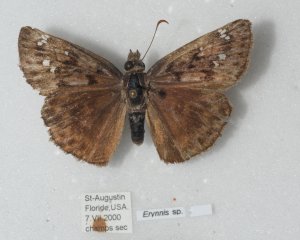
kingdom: Animalia
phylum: Arthropoda
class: Insecta
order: Lepidoptera
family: Hesperiidae
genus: Gesta
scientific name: Gesta
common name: Horace's Duskywing
